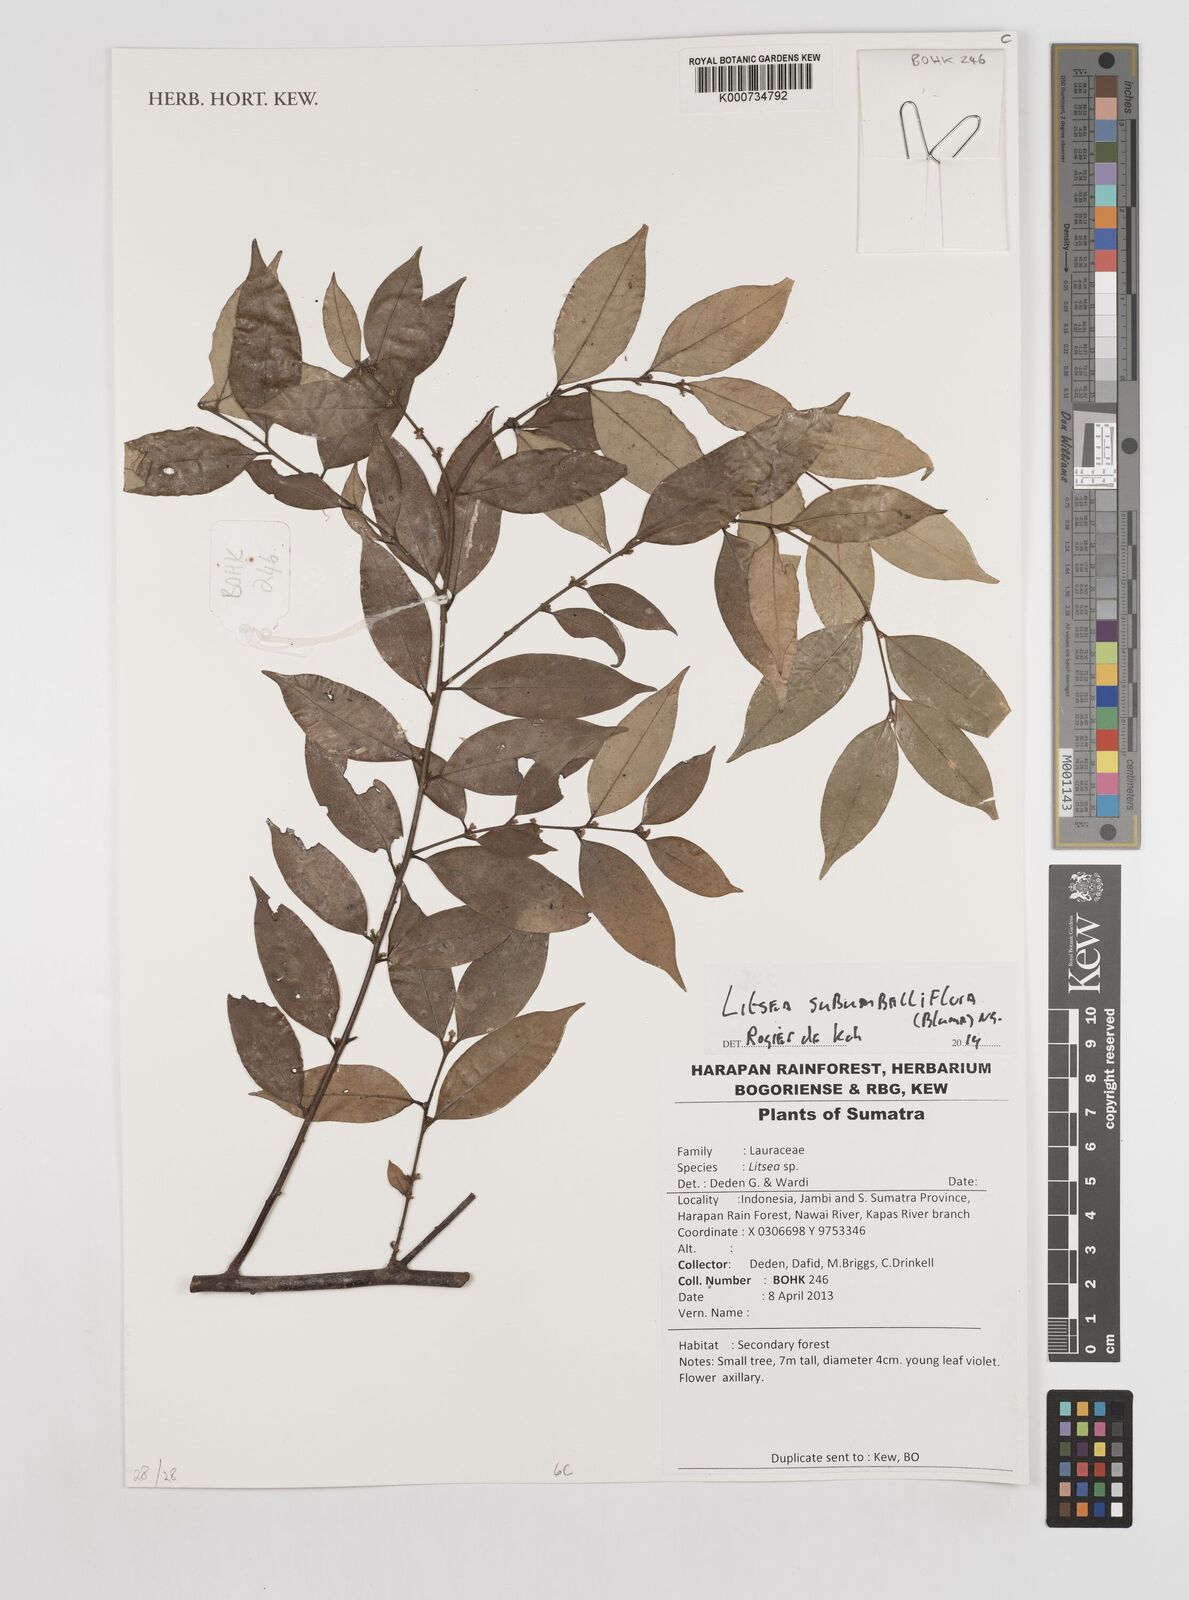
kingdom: Plantae
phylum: Tracheophyta
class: Magnoliopsida
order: Laurales
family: Lauraceae
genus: Litsea
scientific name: Litsea subumbelliflora
